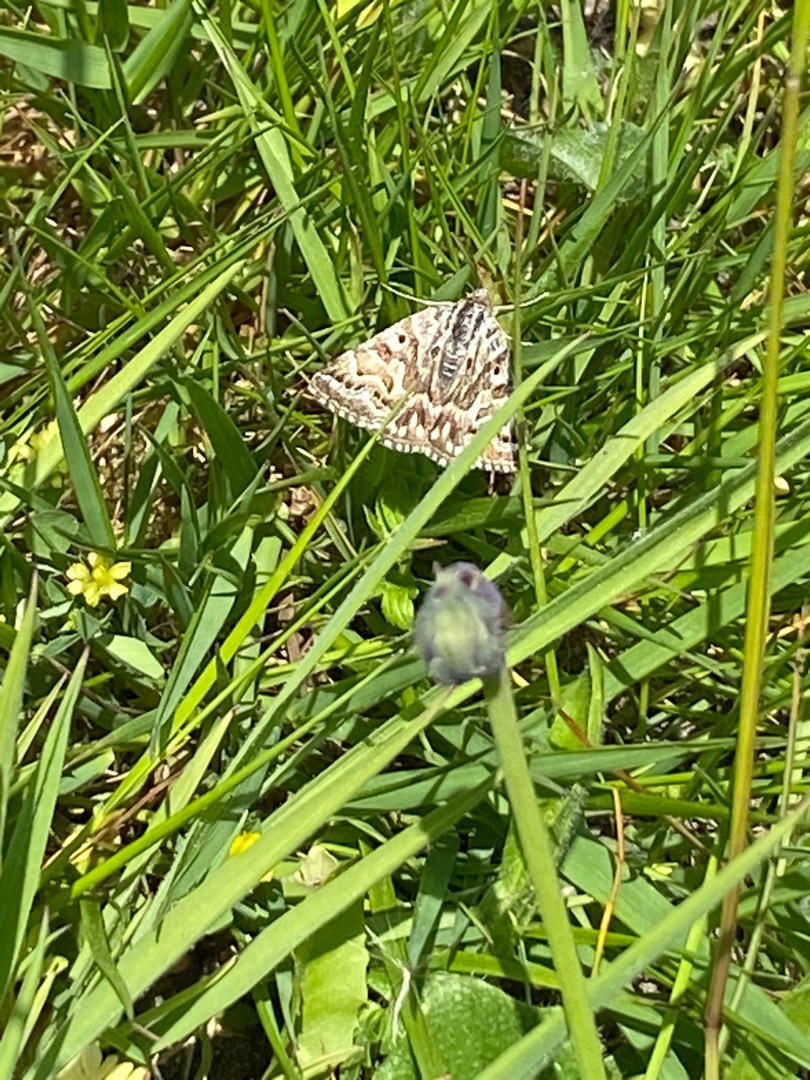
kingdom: Animalia
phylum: Arthropoda
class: Insecta
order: Lepidoptera
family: Erebidae
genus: Callistege
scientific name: Callistege mi
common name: Marmoreret kløverugle
